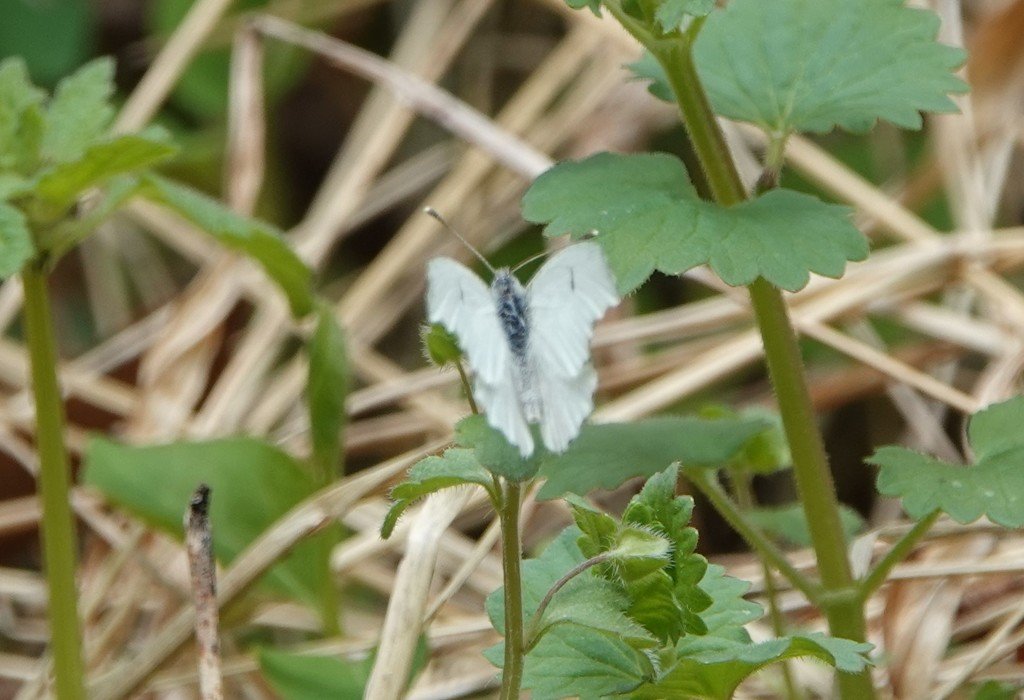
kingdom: Animalia
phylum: Arthropoda
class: Insecta
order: Lepidoptera
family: Pieridae
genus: Anthocharis
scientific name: Anthocharis midea
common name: Falcate Orangetip
